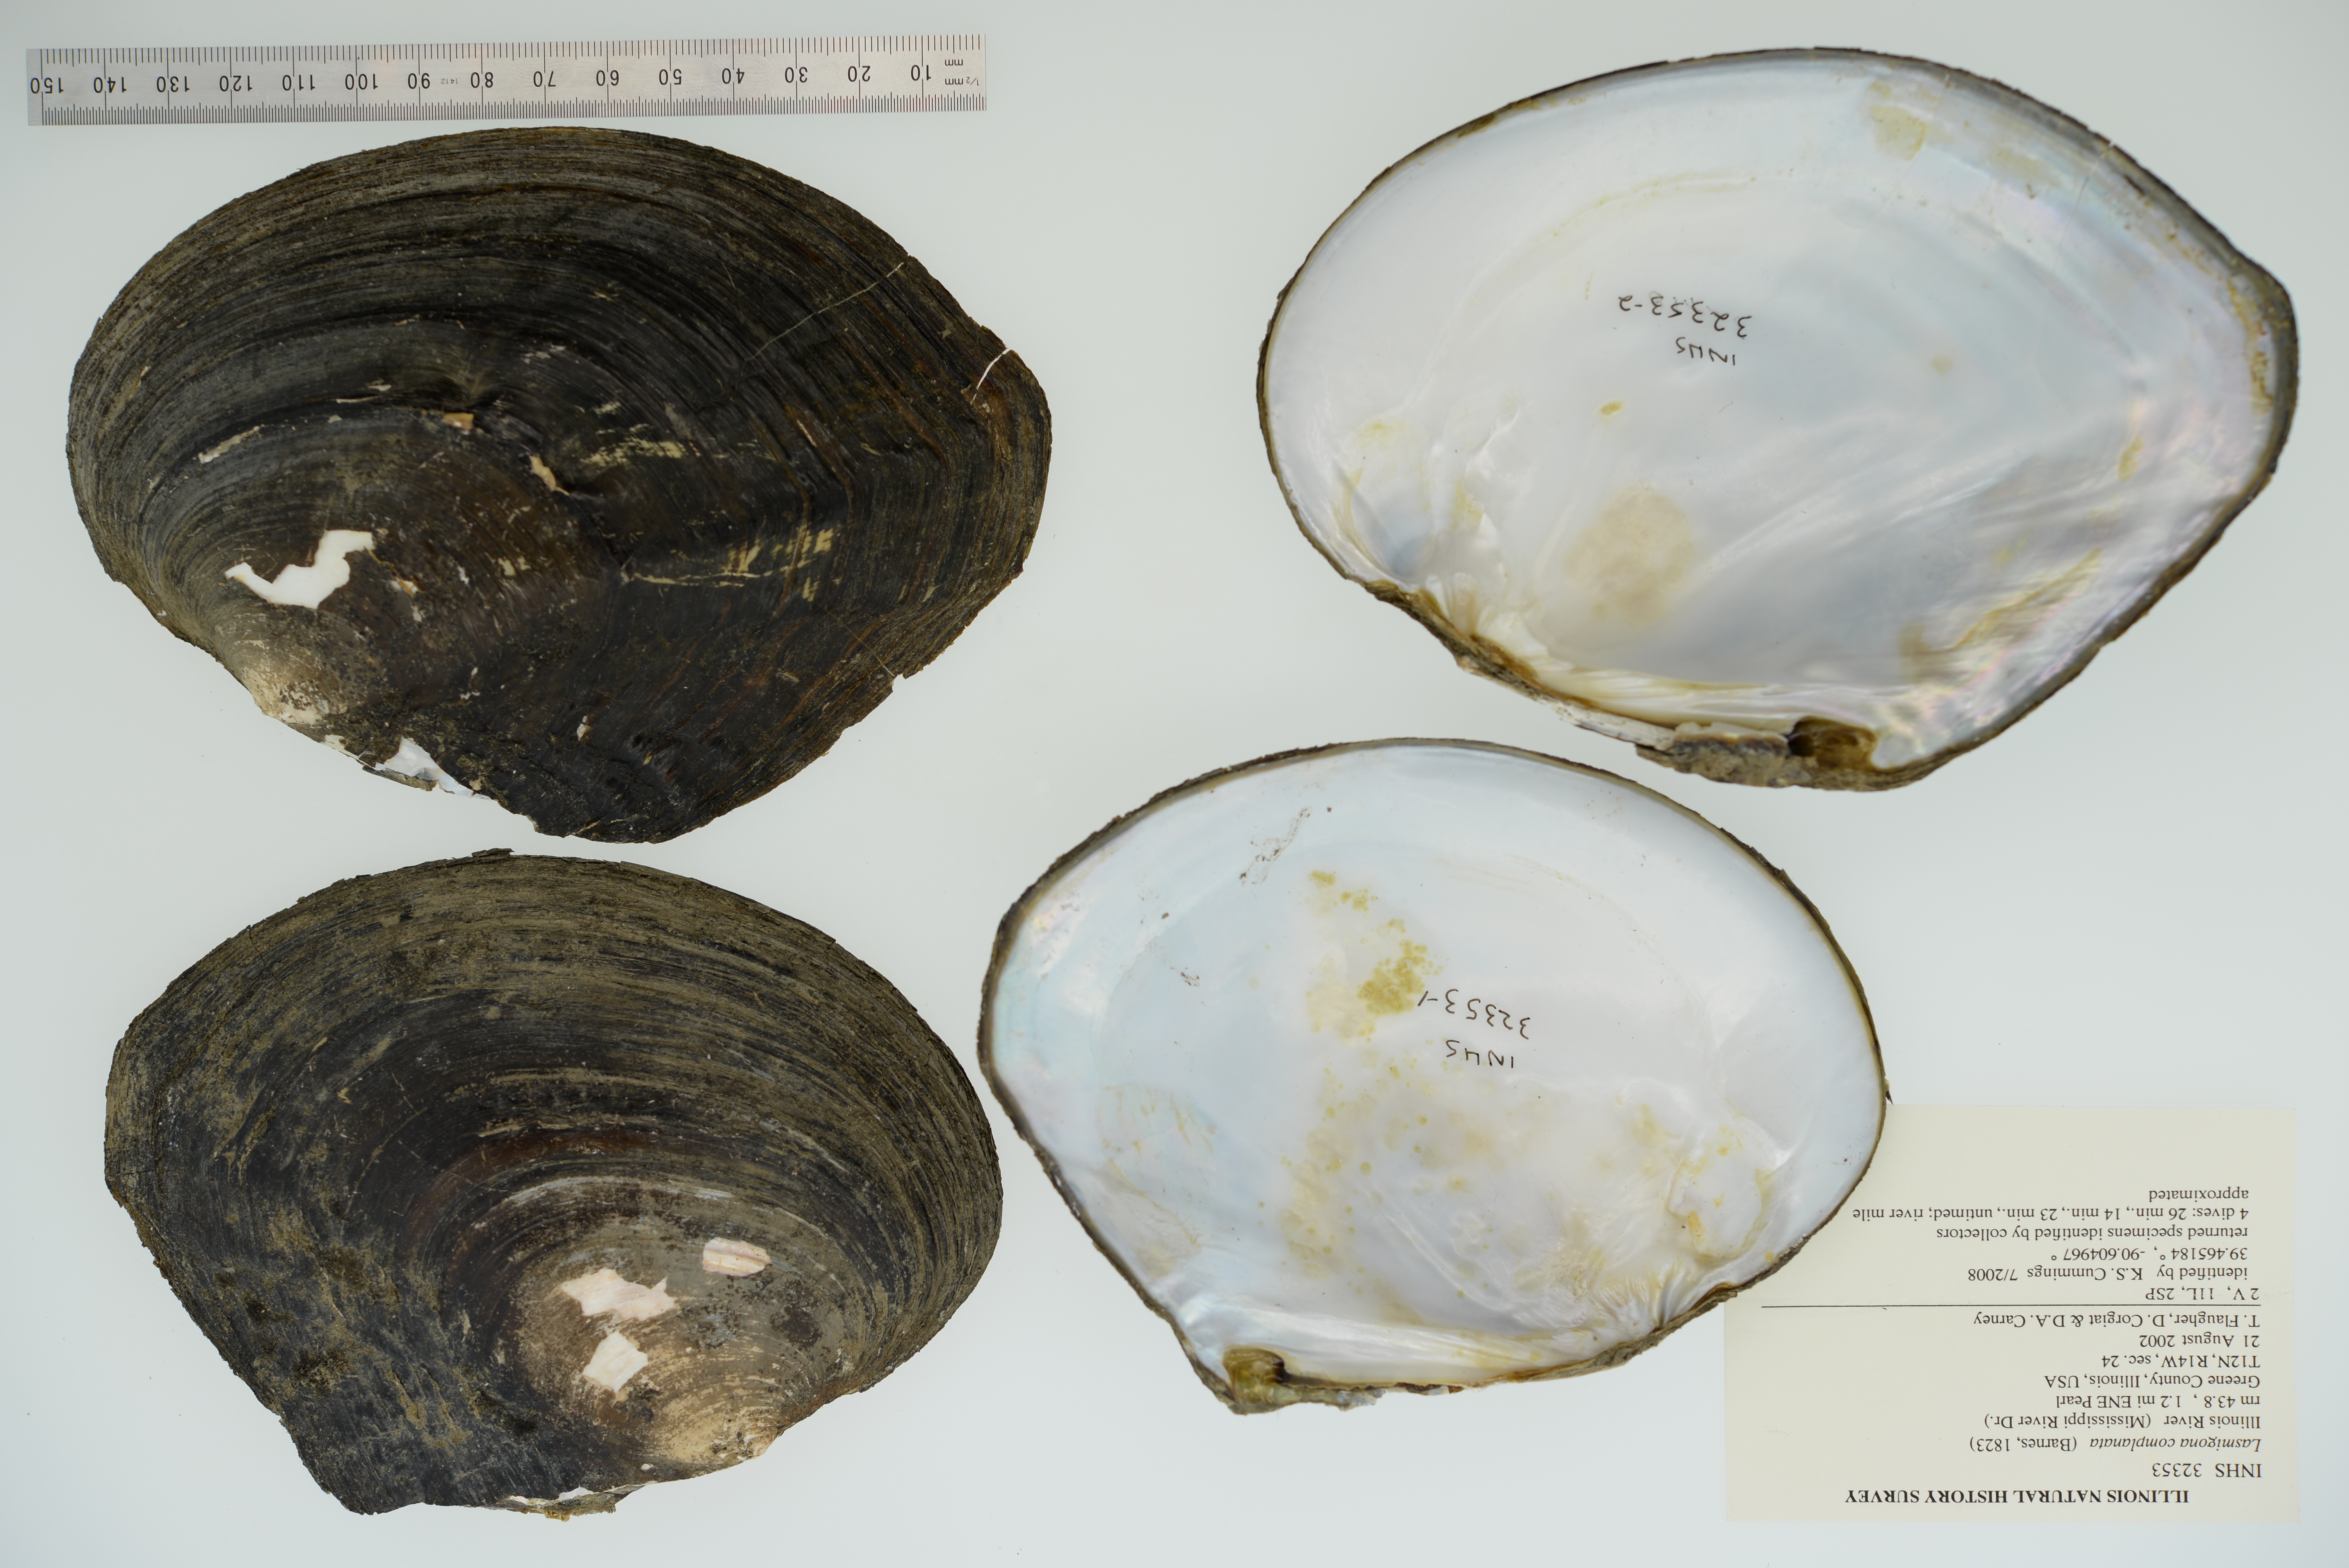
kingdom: Animalia
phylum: Mollusca
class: Bivalvia
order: Unionida
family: Unionidae
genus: Lasmigona
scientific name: Lasmigona complanata
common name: White heelsplitter
